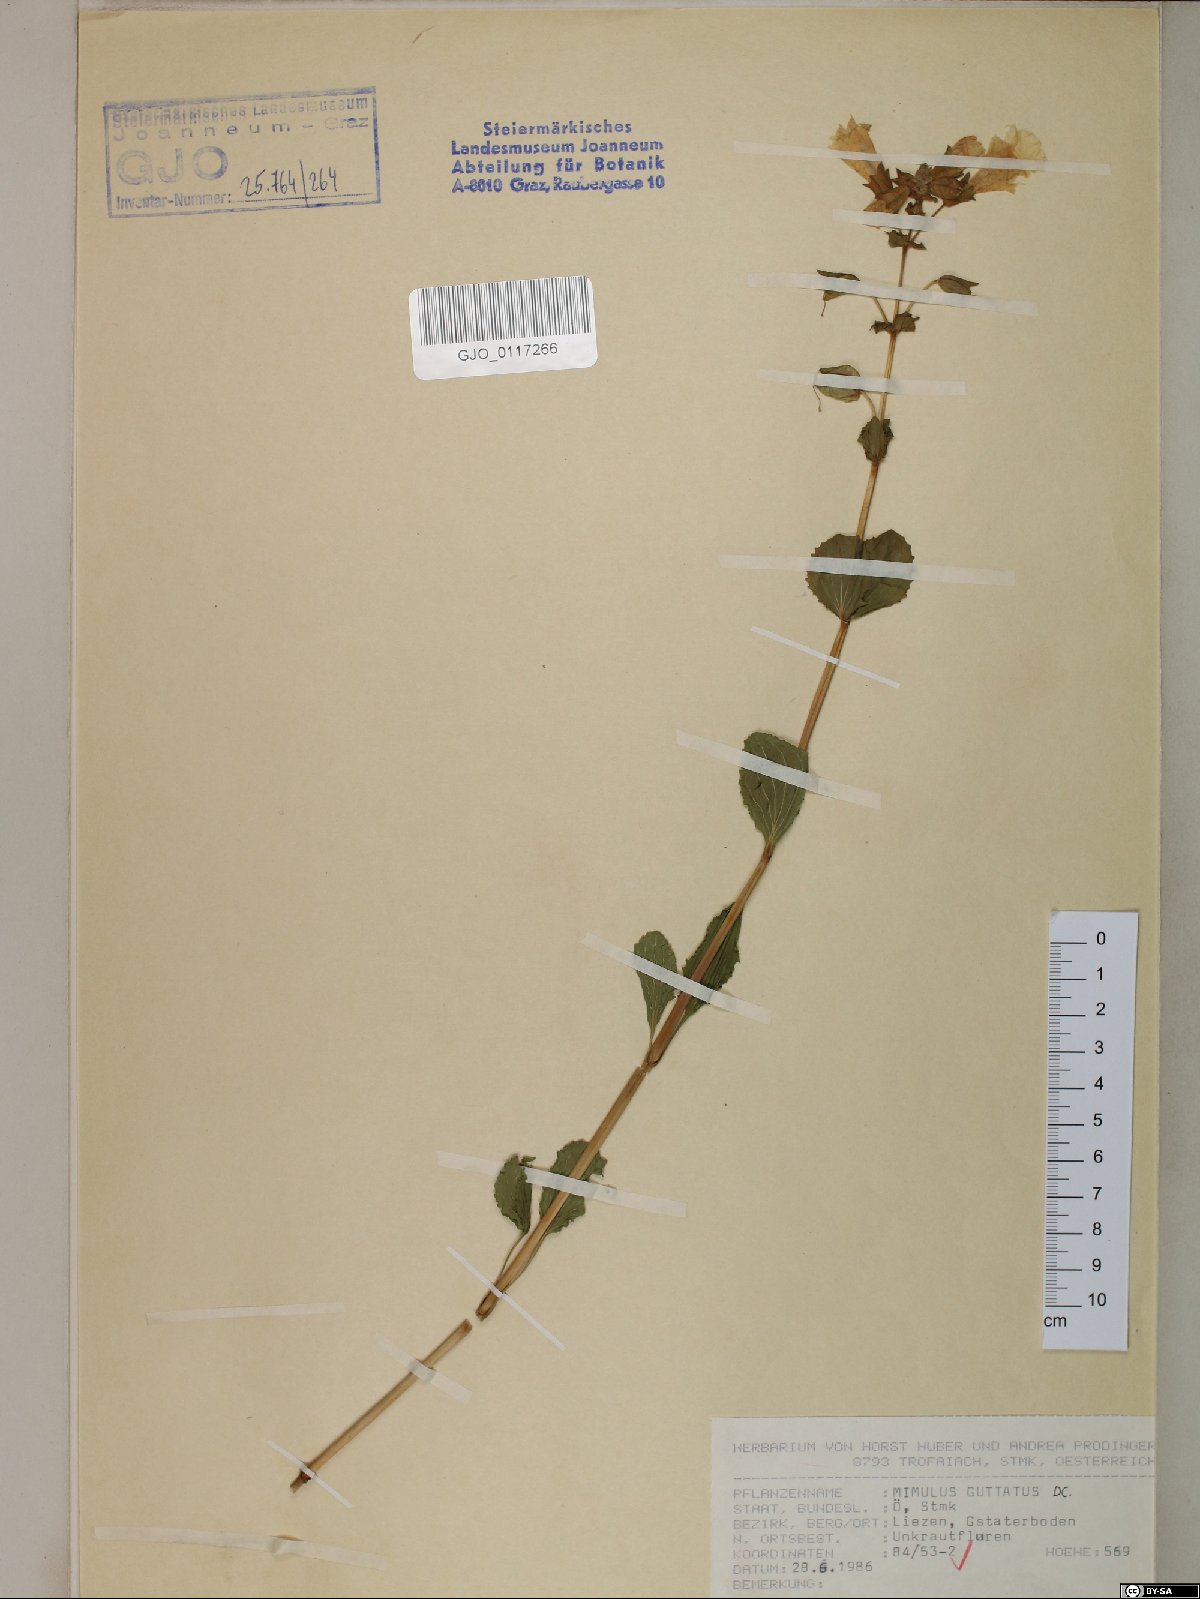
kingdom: Plantae
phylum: Tracheophyta
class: Magnoliopsida
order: Lamiales
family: Phrymaceae
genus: Erythranthe
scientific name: Erythranthe guttata
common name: Monkeyflower
